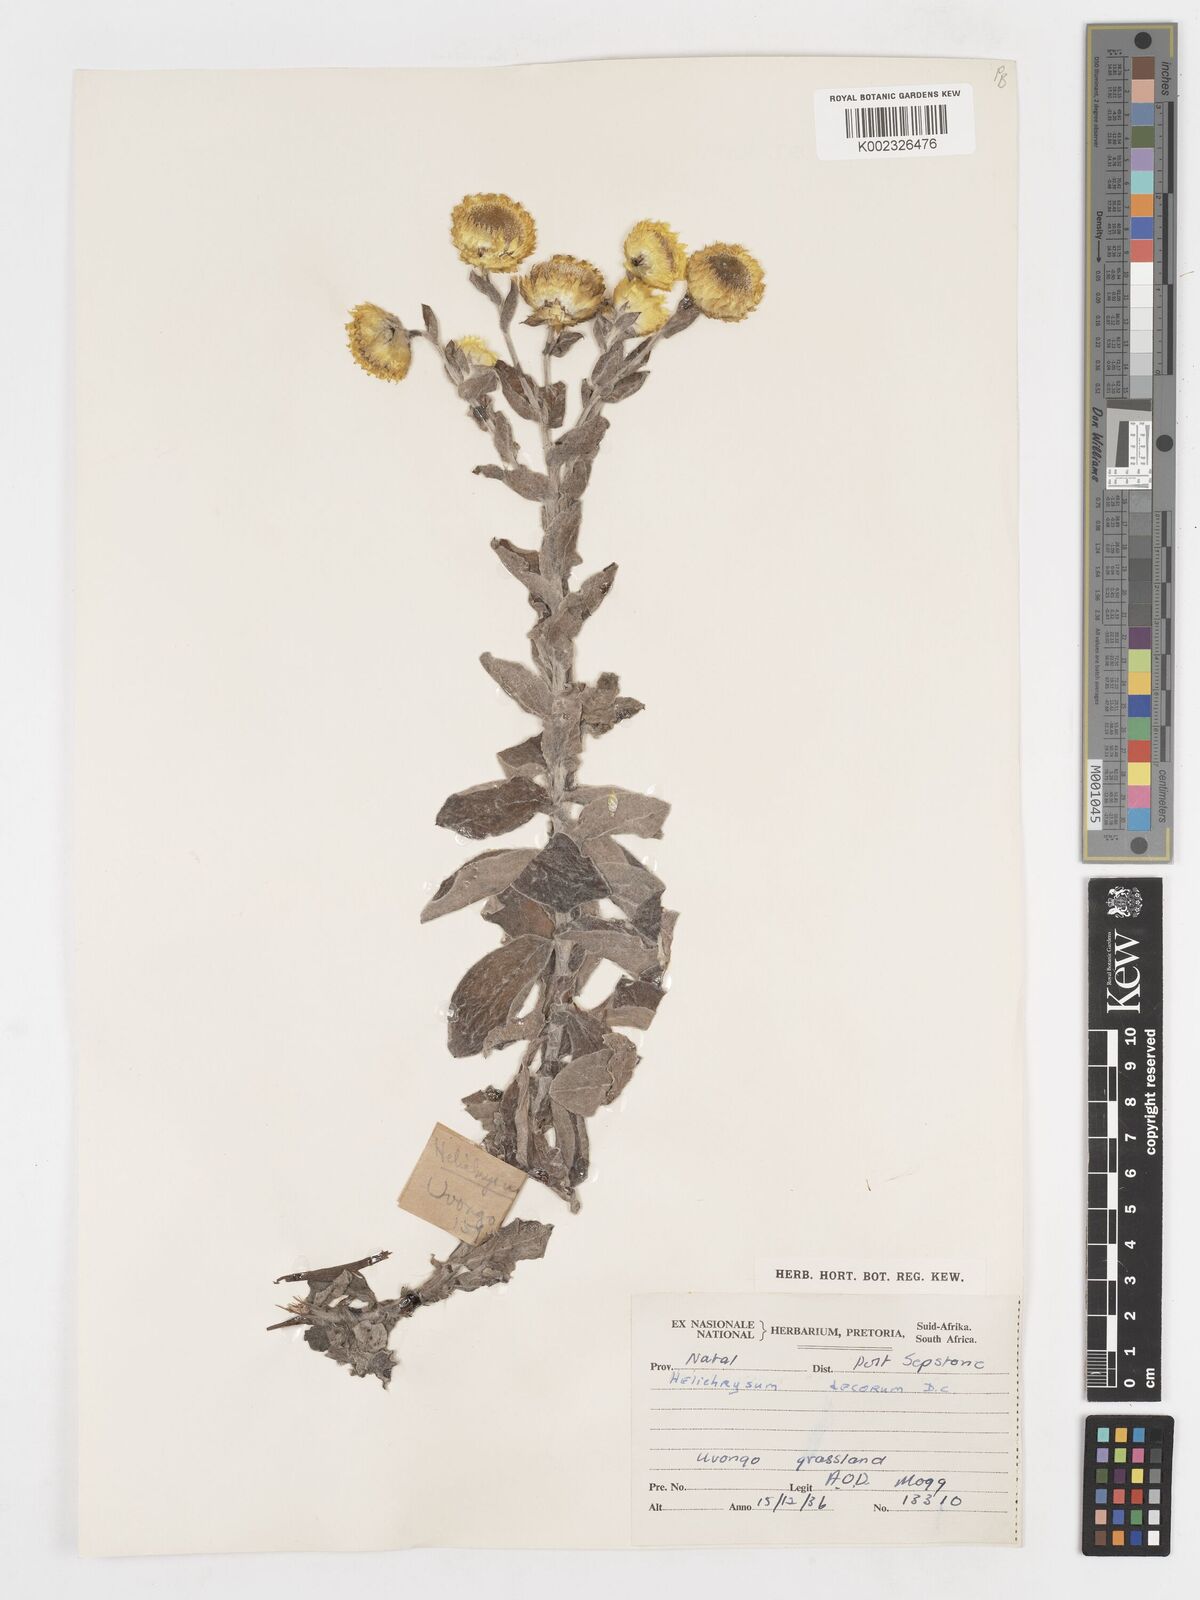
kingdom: Plantae
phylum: Tracheophyta
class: Magnoliopsida
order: Asterales
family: Asteraceae
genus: Helichrysum
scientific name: Helichrysum decorum
